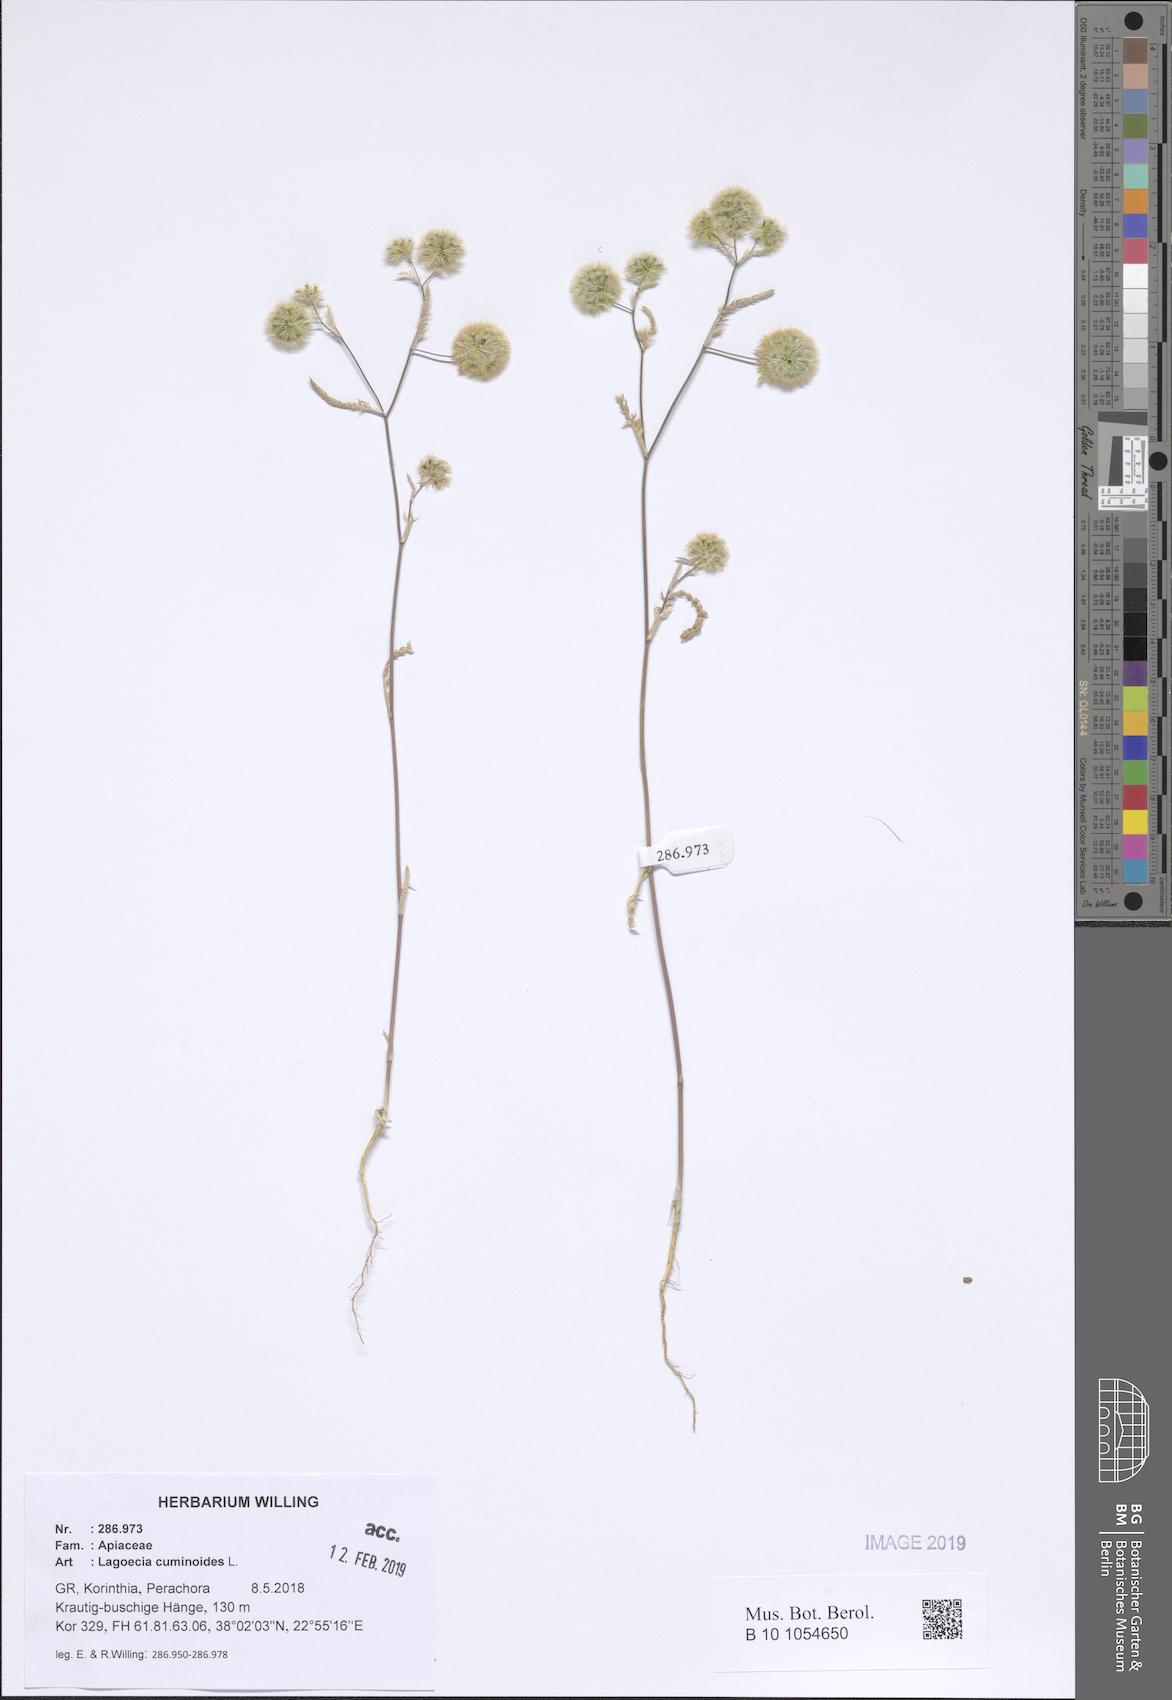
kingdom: Plantae
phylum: Tracheophyta
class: Magnoliopsida
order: Apiales
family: Apiaceae
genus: Lagoecia
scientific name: Lagoecia cuminoides
